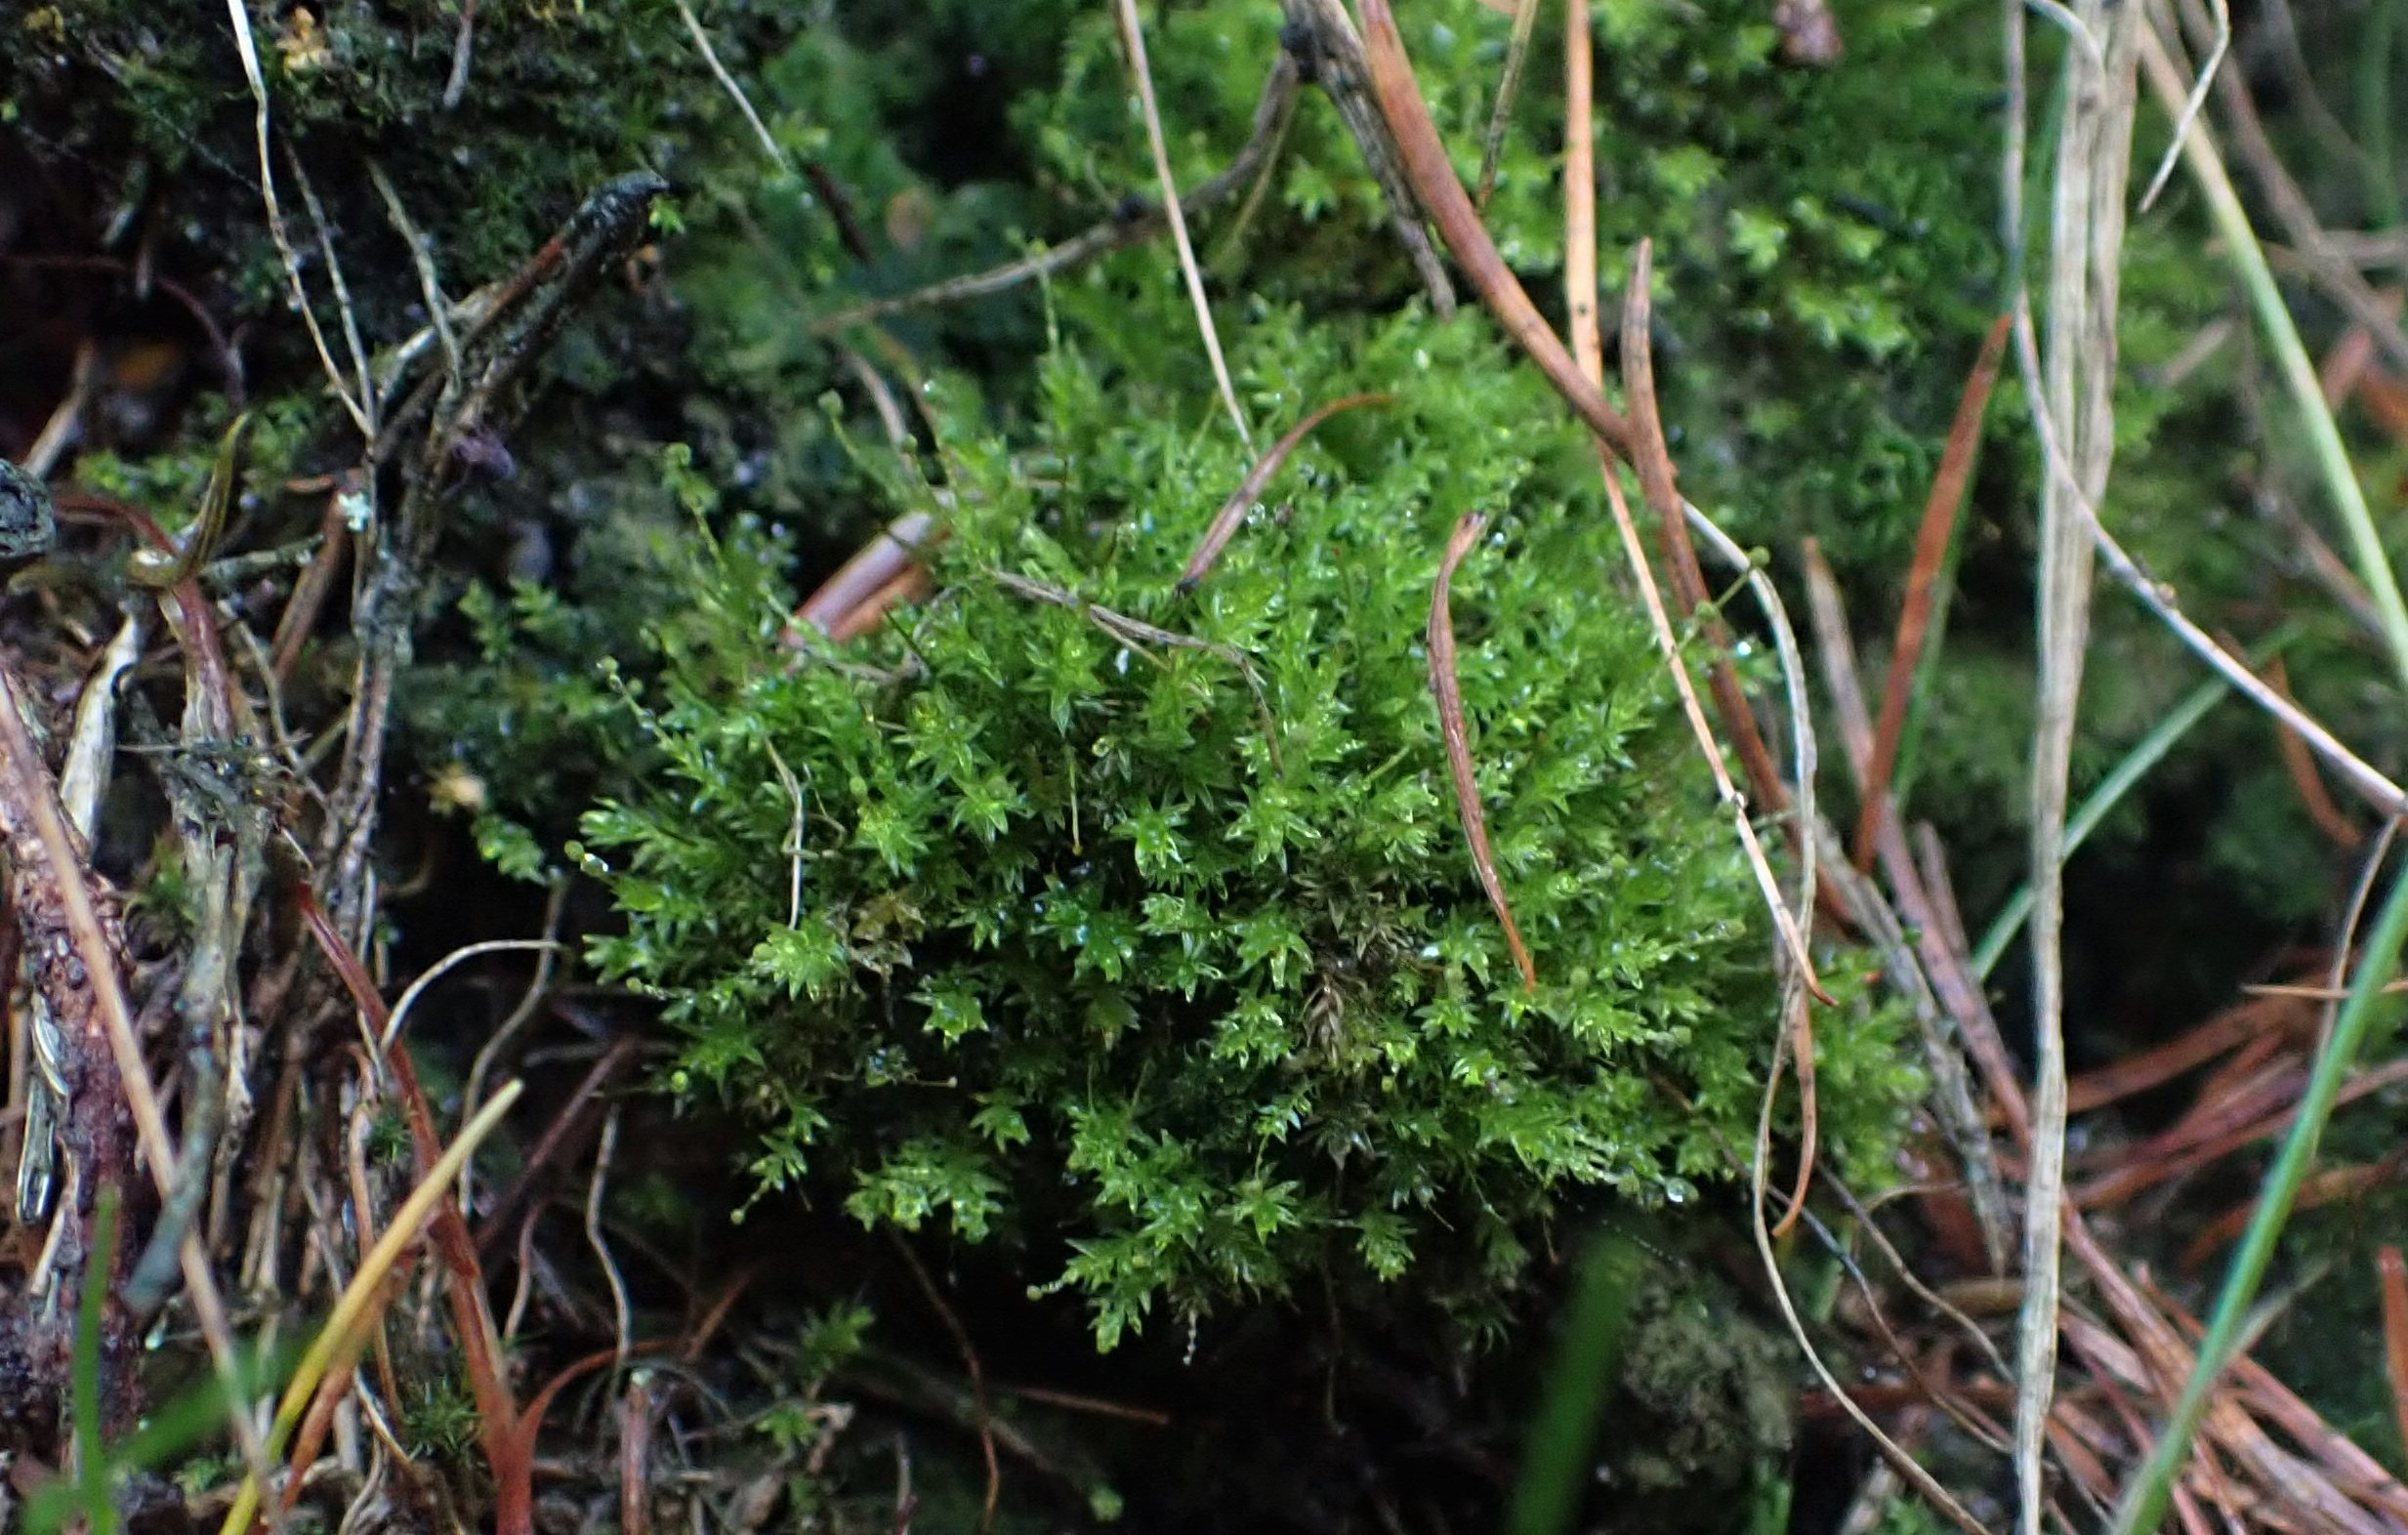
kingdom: Plantae
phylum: Bryophyta
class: Bryopsida
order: Aulacomniales
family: Aulacomniaceae
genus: Aulacomnium
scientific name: Aulacomnium androgynum
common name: Kugle-filtmos
